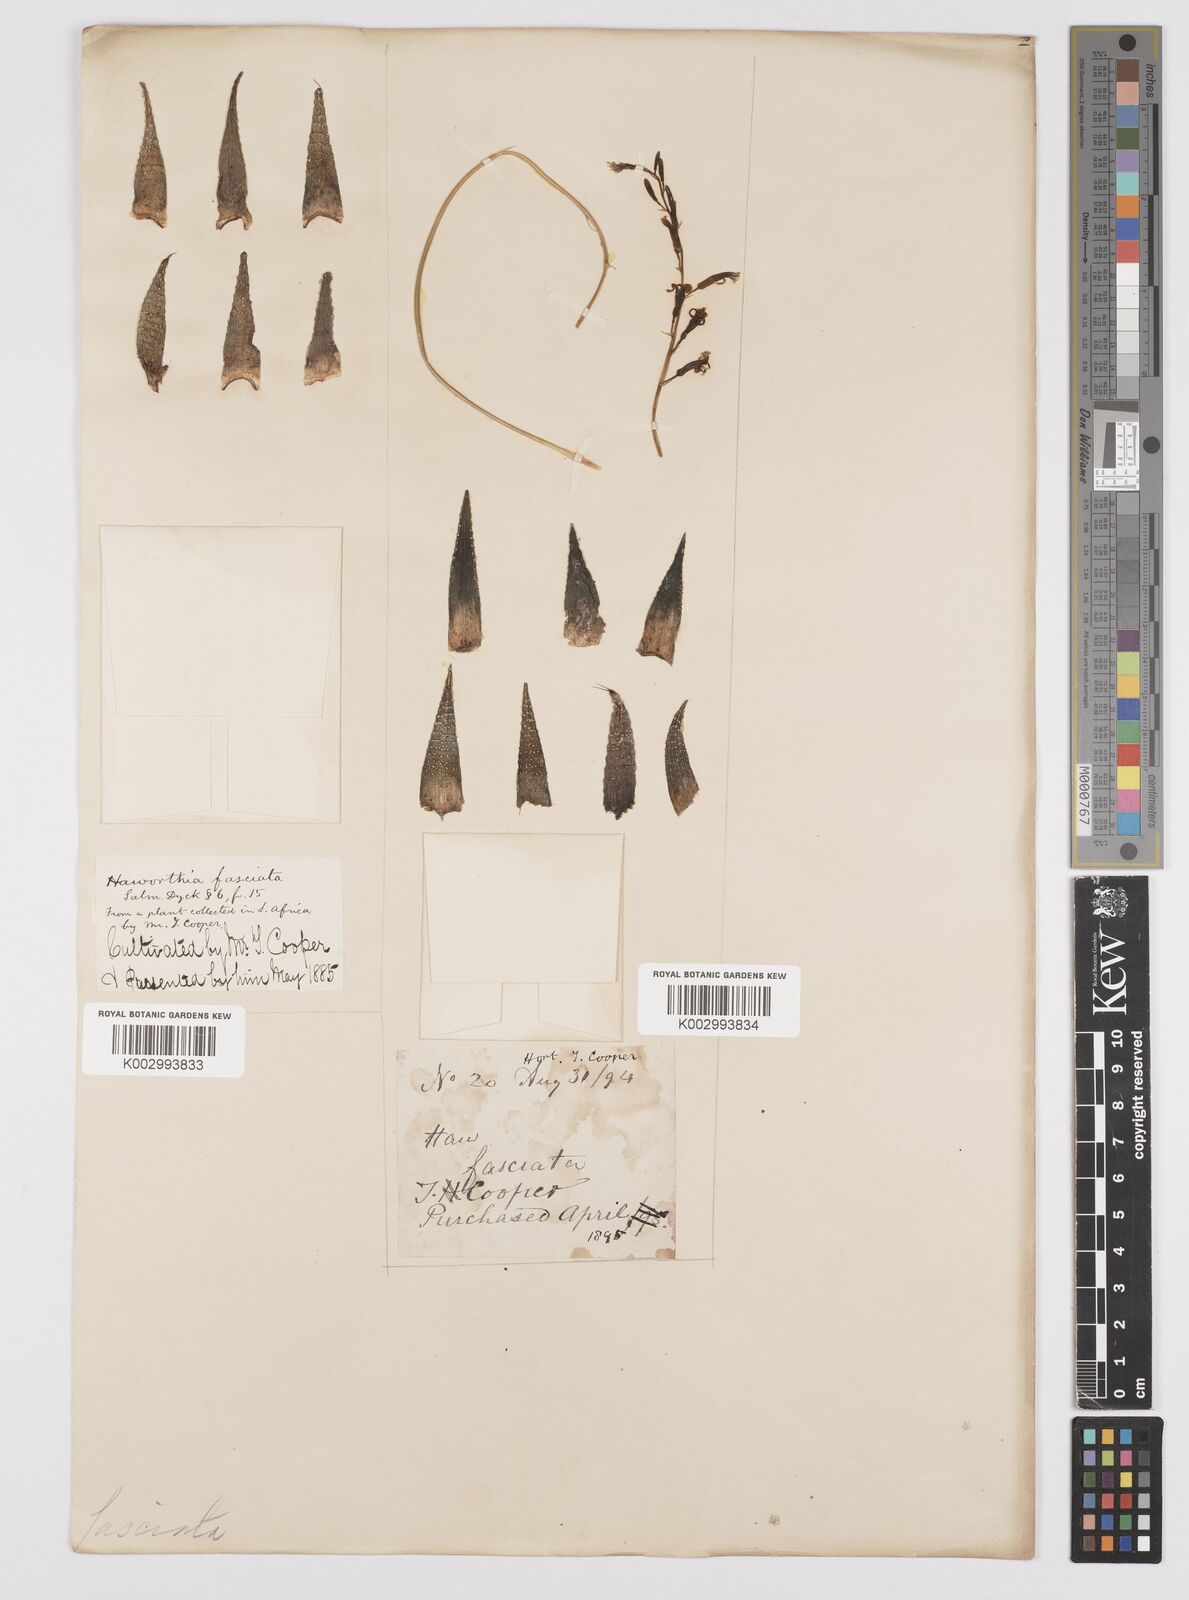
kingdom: Plantae
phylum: Tracheophyta
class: Liliopsida
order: Asparagales
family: Asphodelaceae
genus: Haworthiopsis
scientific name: Haworthiopsis fasciata
